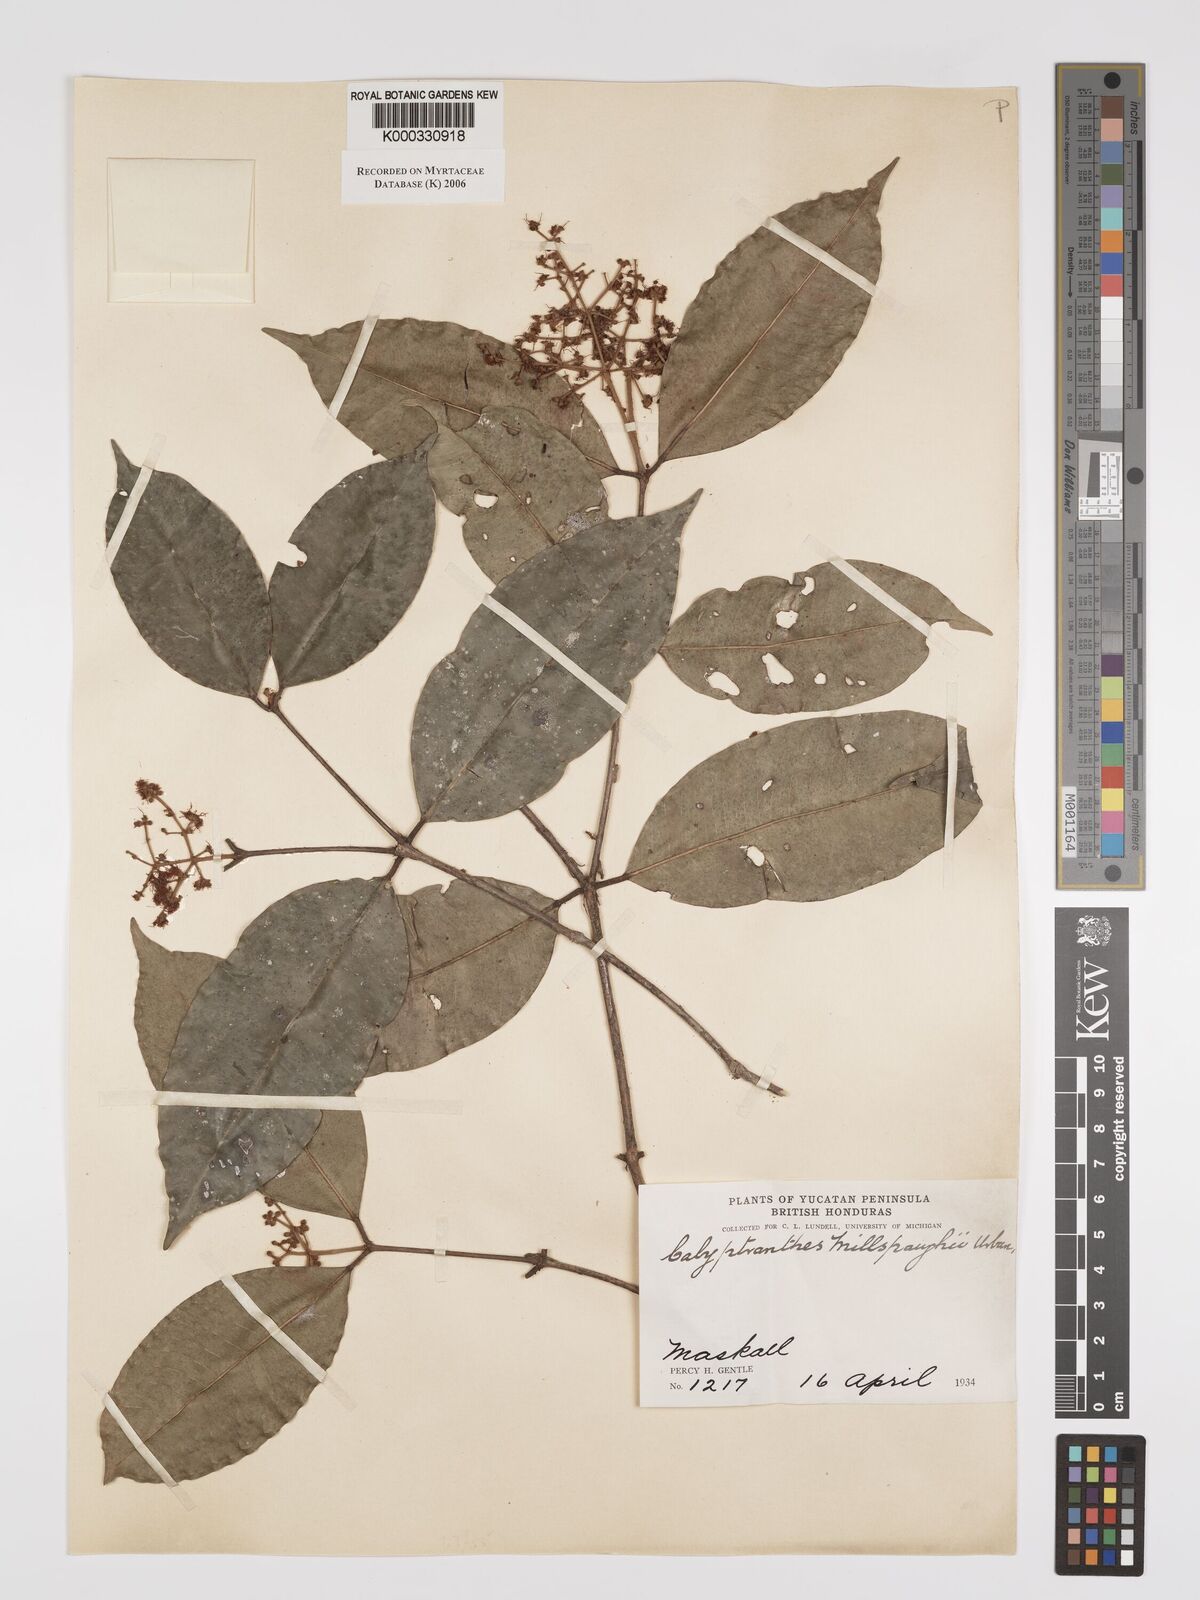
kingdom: Plantae
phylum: Tracheophyta
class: Magnoliopsida
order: Myrtales
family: Myrtaceae
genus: Myrcia
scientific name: Myrcia millspaughii
